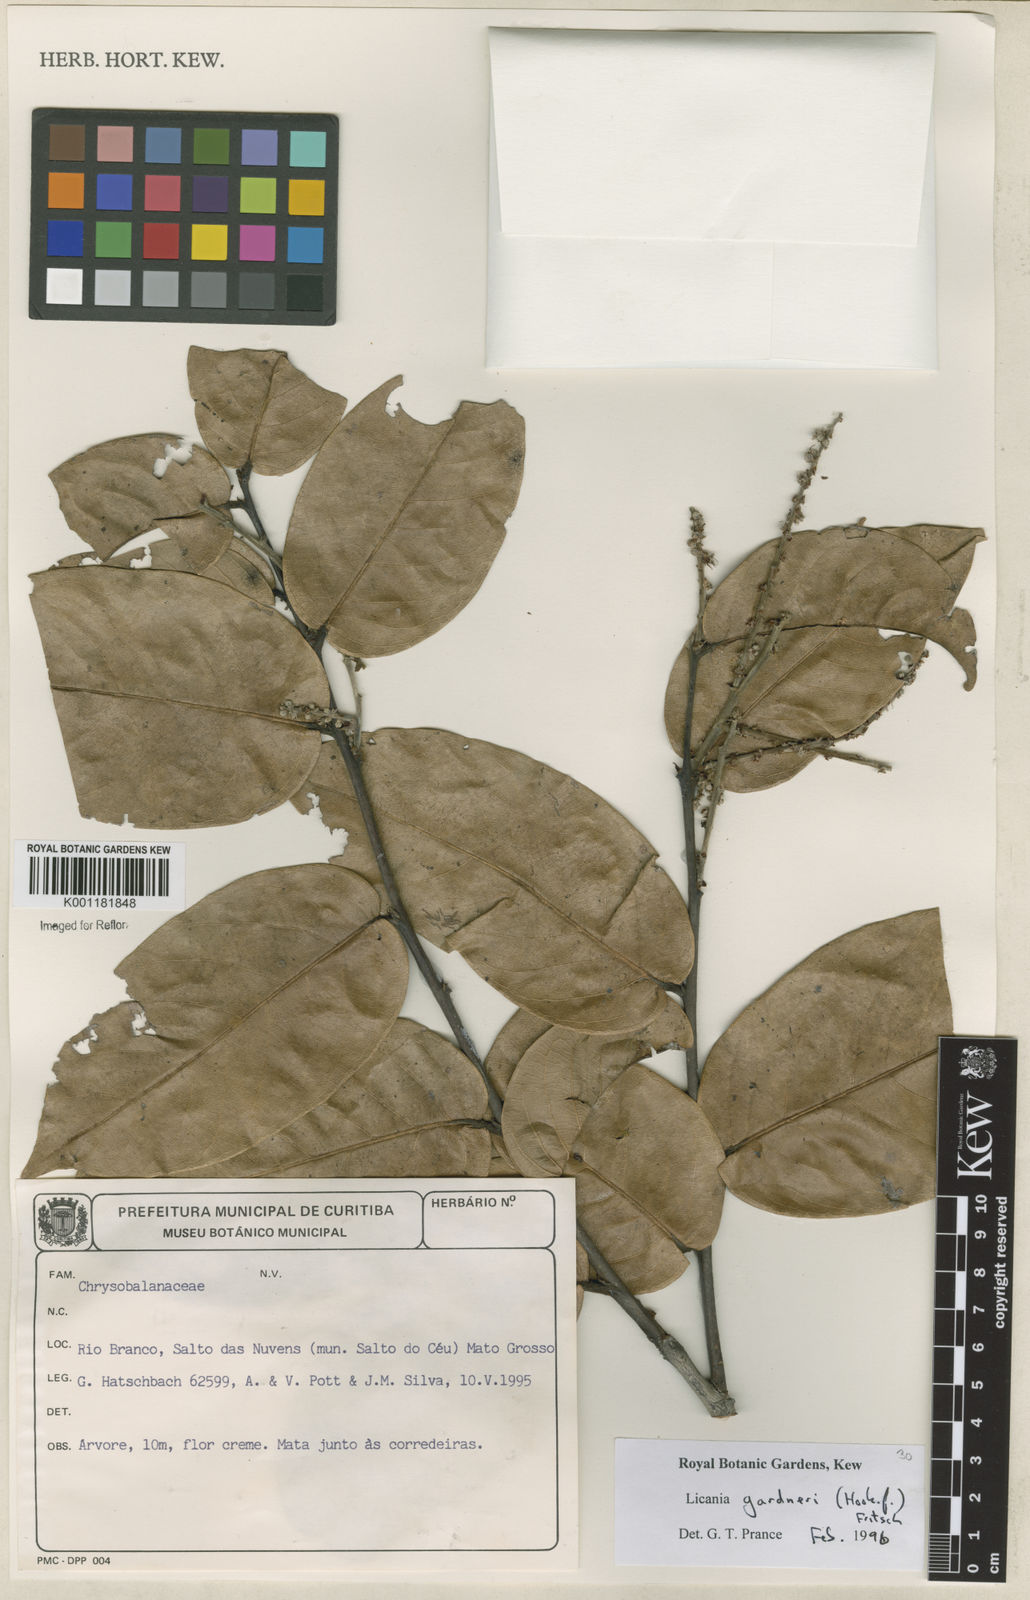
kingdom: Plantae
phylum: Tracheophyta
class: Magnoliopsida
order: Malpighiales
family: Chrysobalanaceae
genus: Leptobalanus
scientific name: Leptobalanus gardneri
